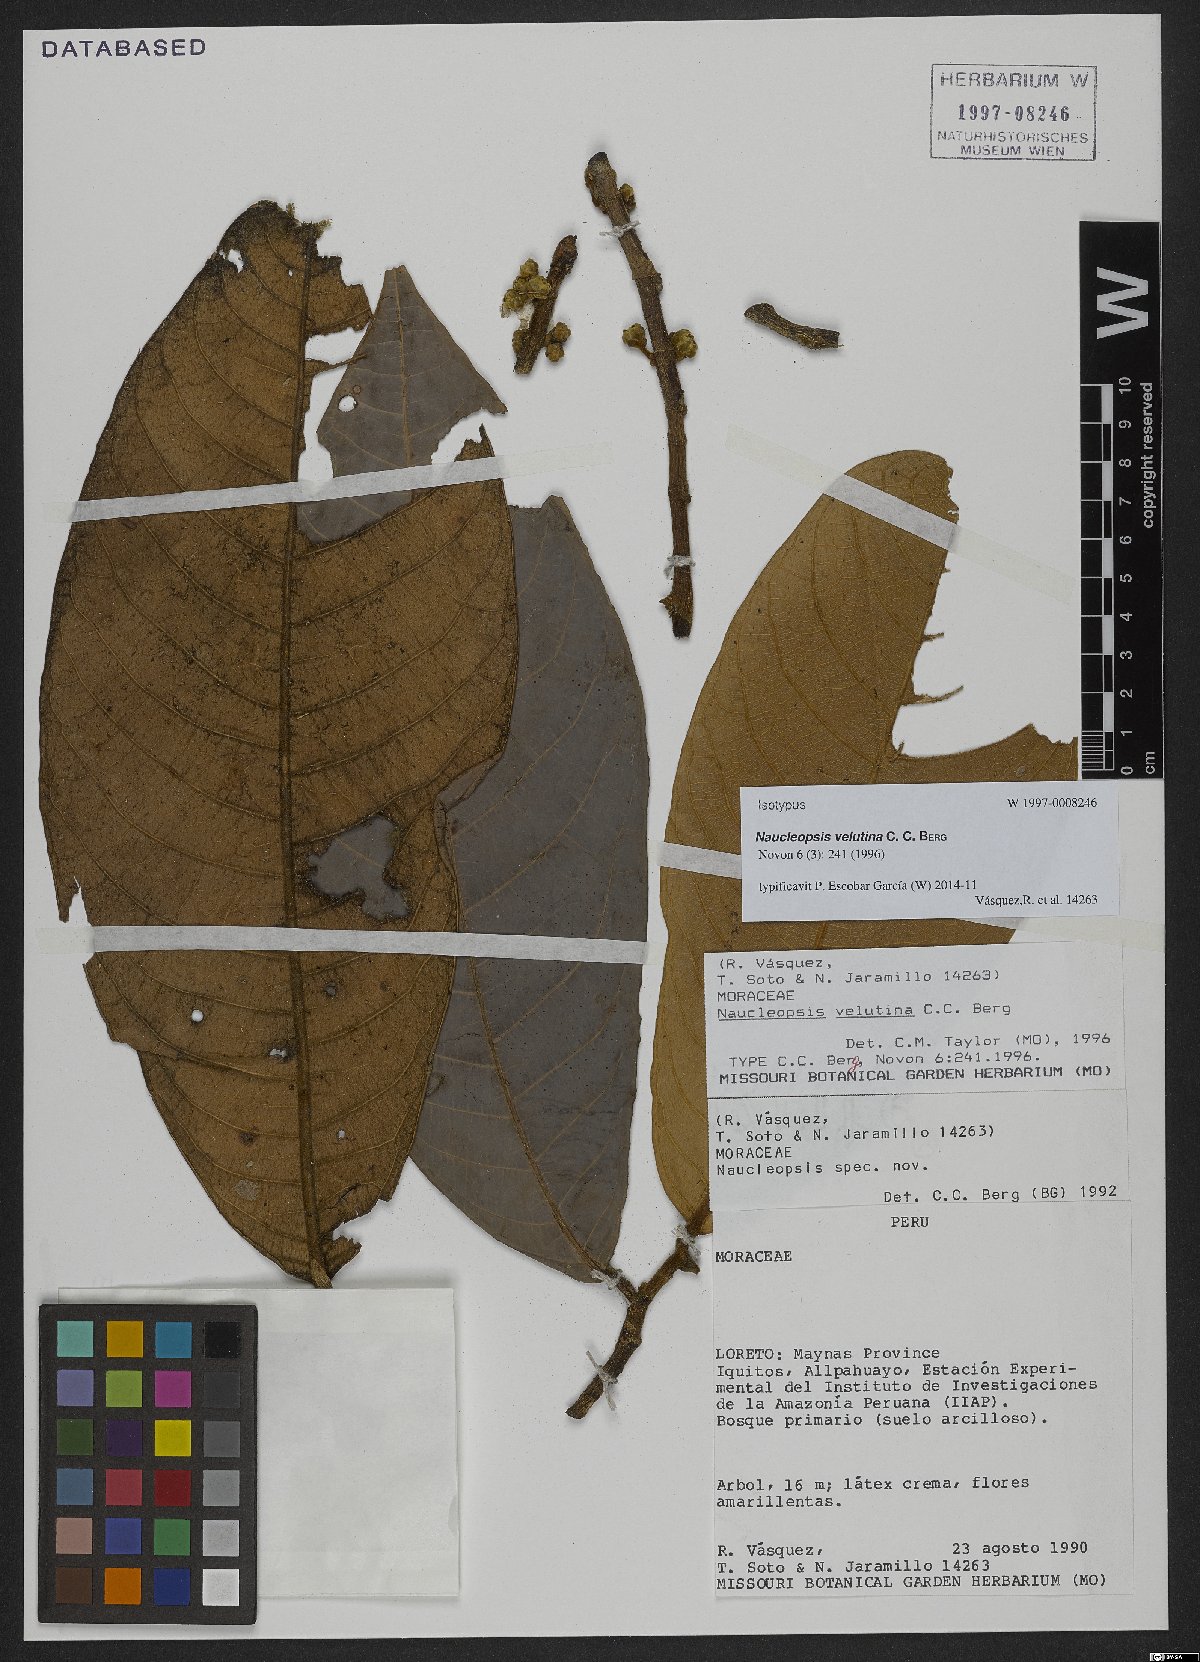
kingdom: Plantae
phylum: Tracheophyta
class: Magnoliopsida
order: Rosales
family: Moraceae
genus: Naucleopsis
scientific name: Naucleopsis velutina
